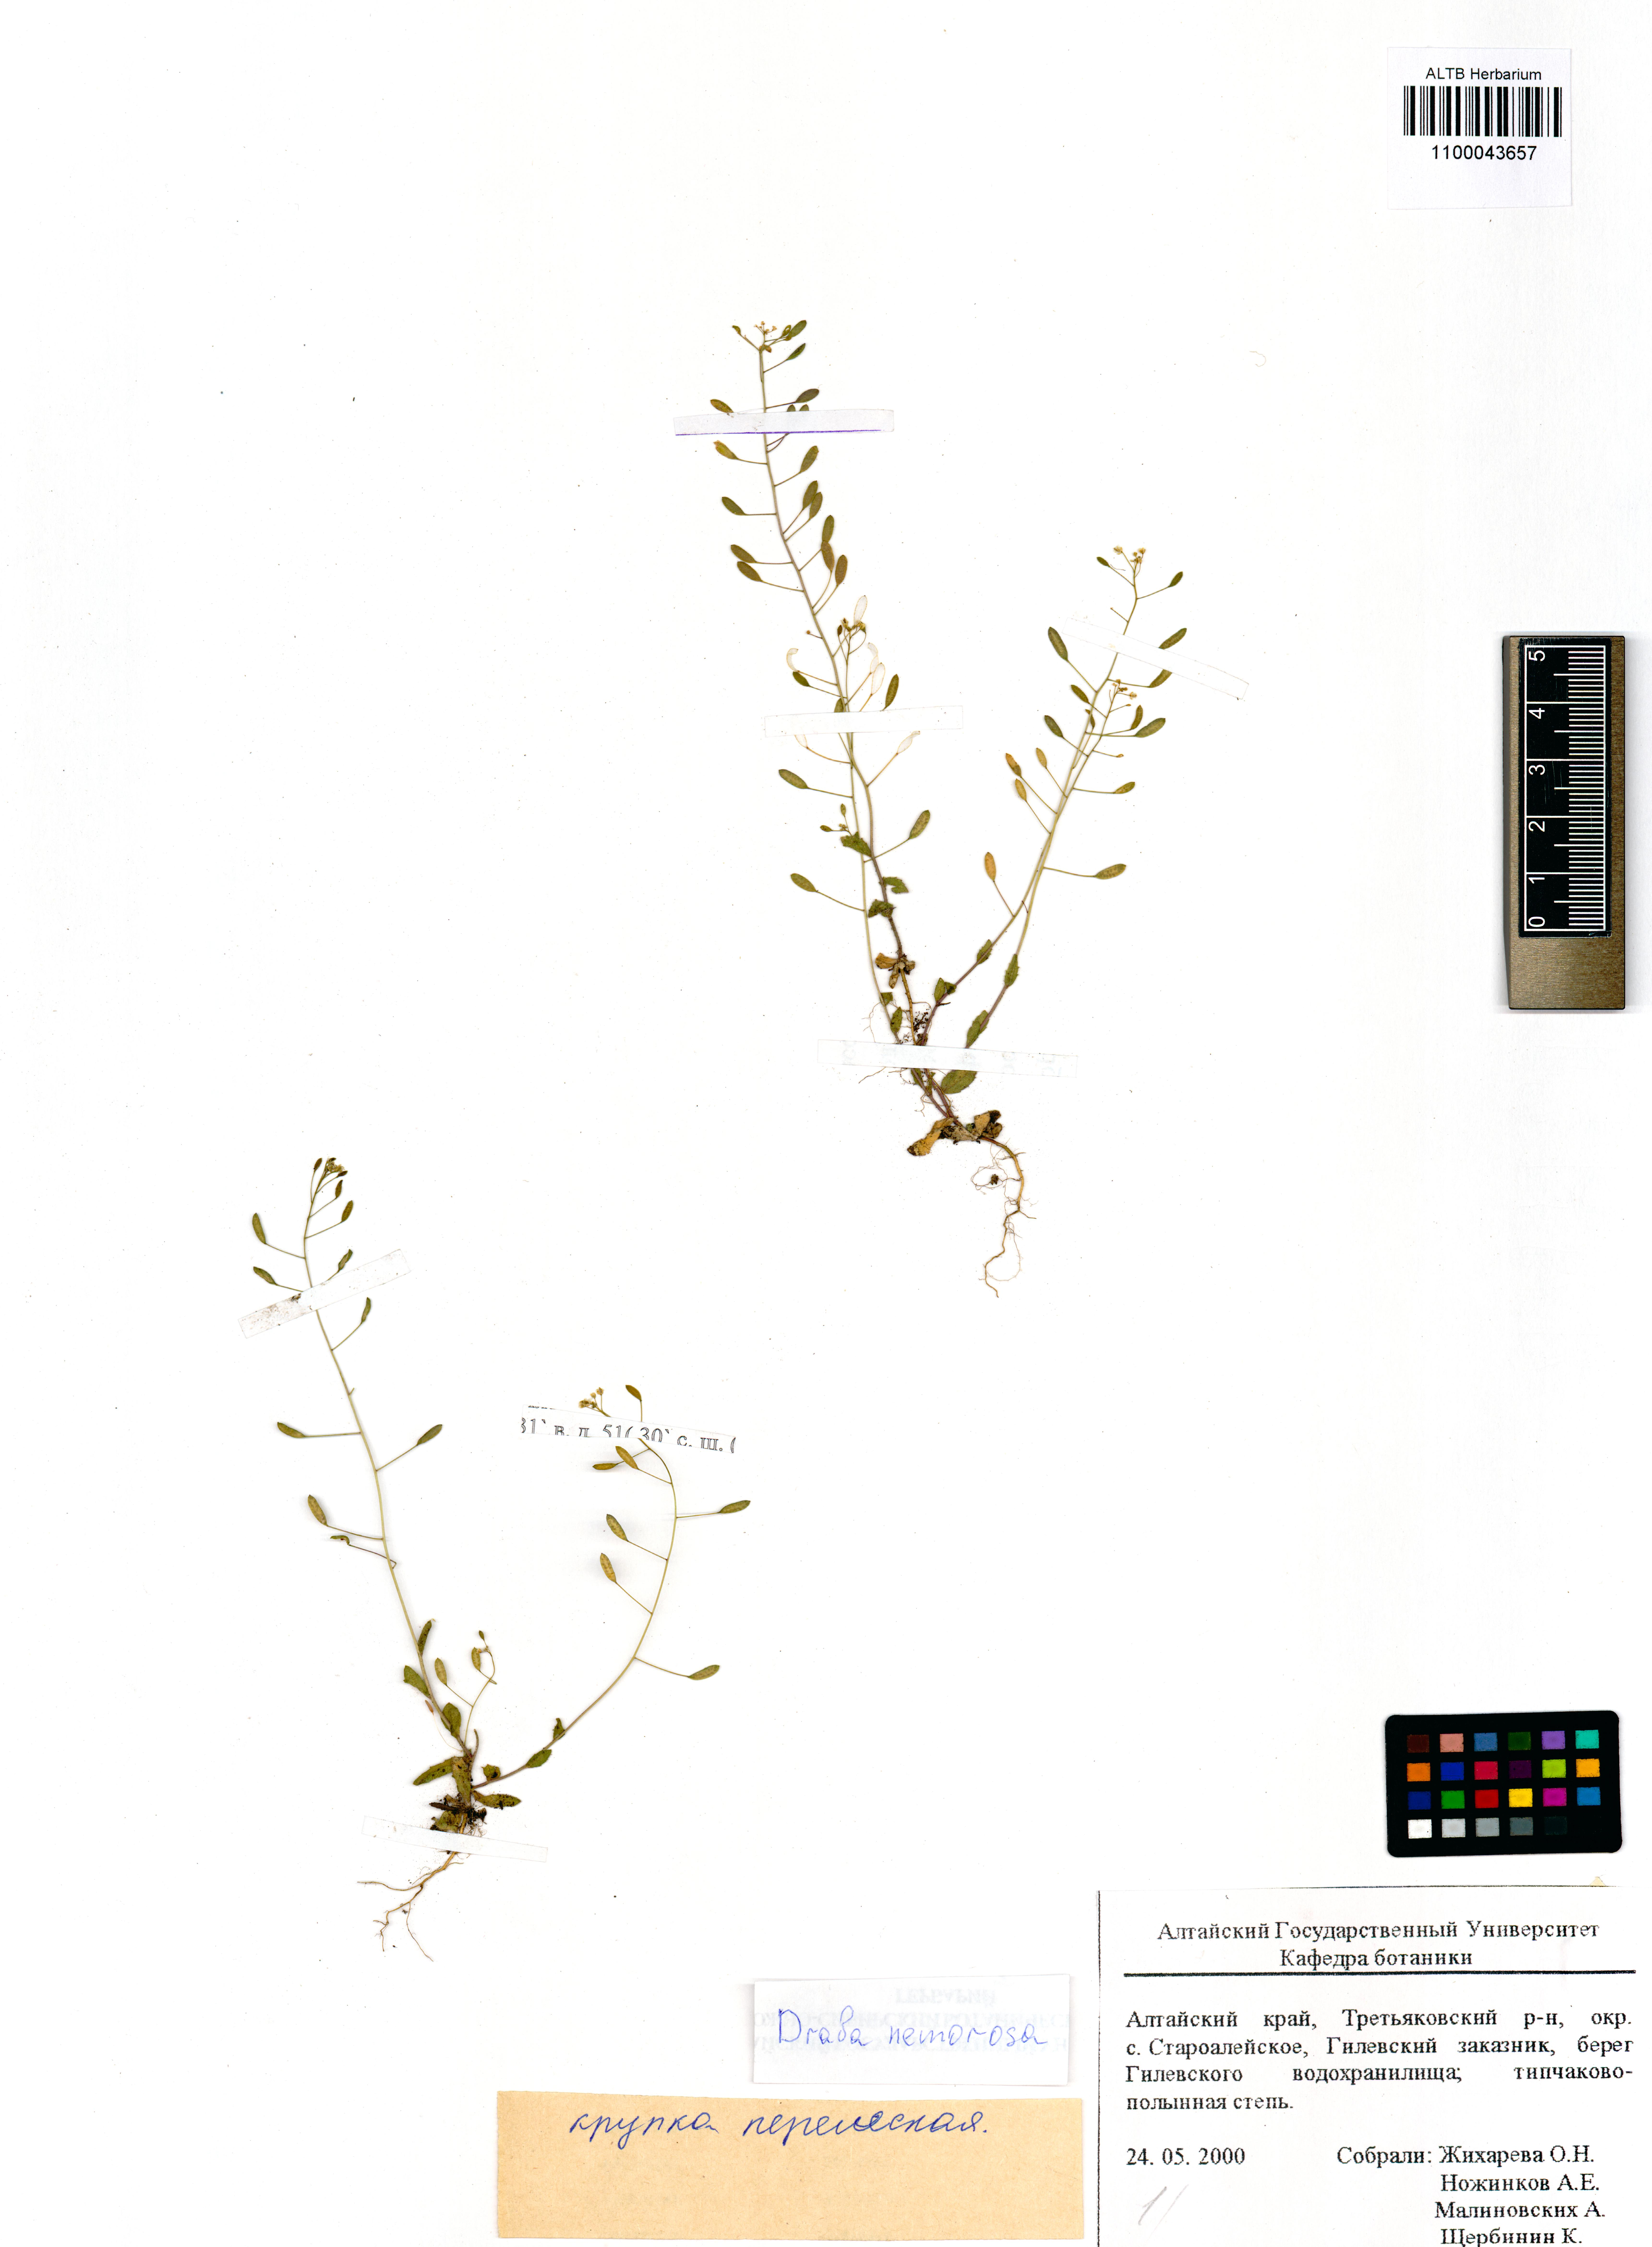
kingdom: Plantae
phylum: Tracheophyta
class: Magnoliopsida
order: Brassicales
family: Brassicaceae
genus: Draba
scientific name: Draba nemorosa
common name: Wood whitlow-grass
